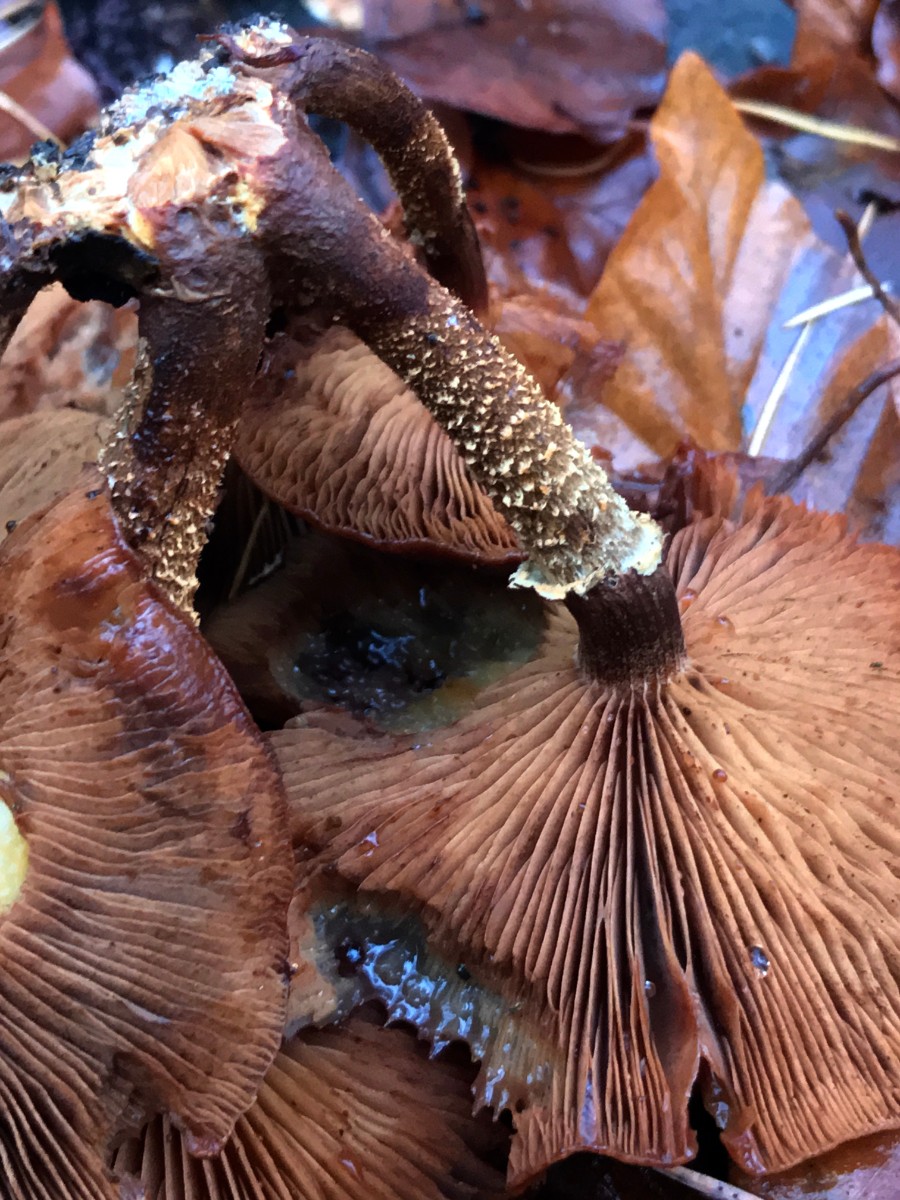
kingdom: Fungi
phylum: Basidiomycota
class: Agaricomycetes
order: Agaricales
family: Strophariaceae
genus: Kuehneromyces
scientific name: Kuehneromyces mutabilis
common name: foranderlig skælhat
